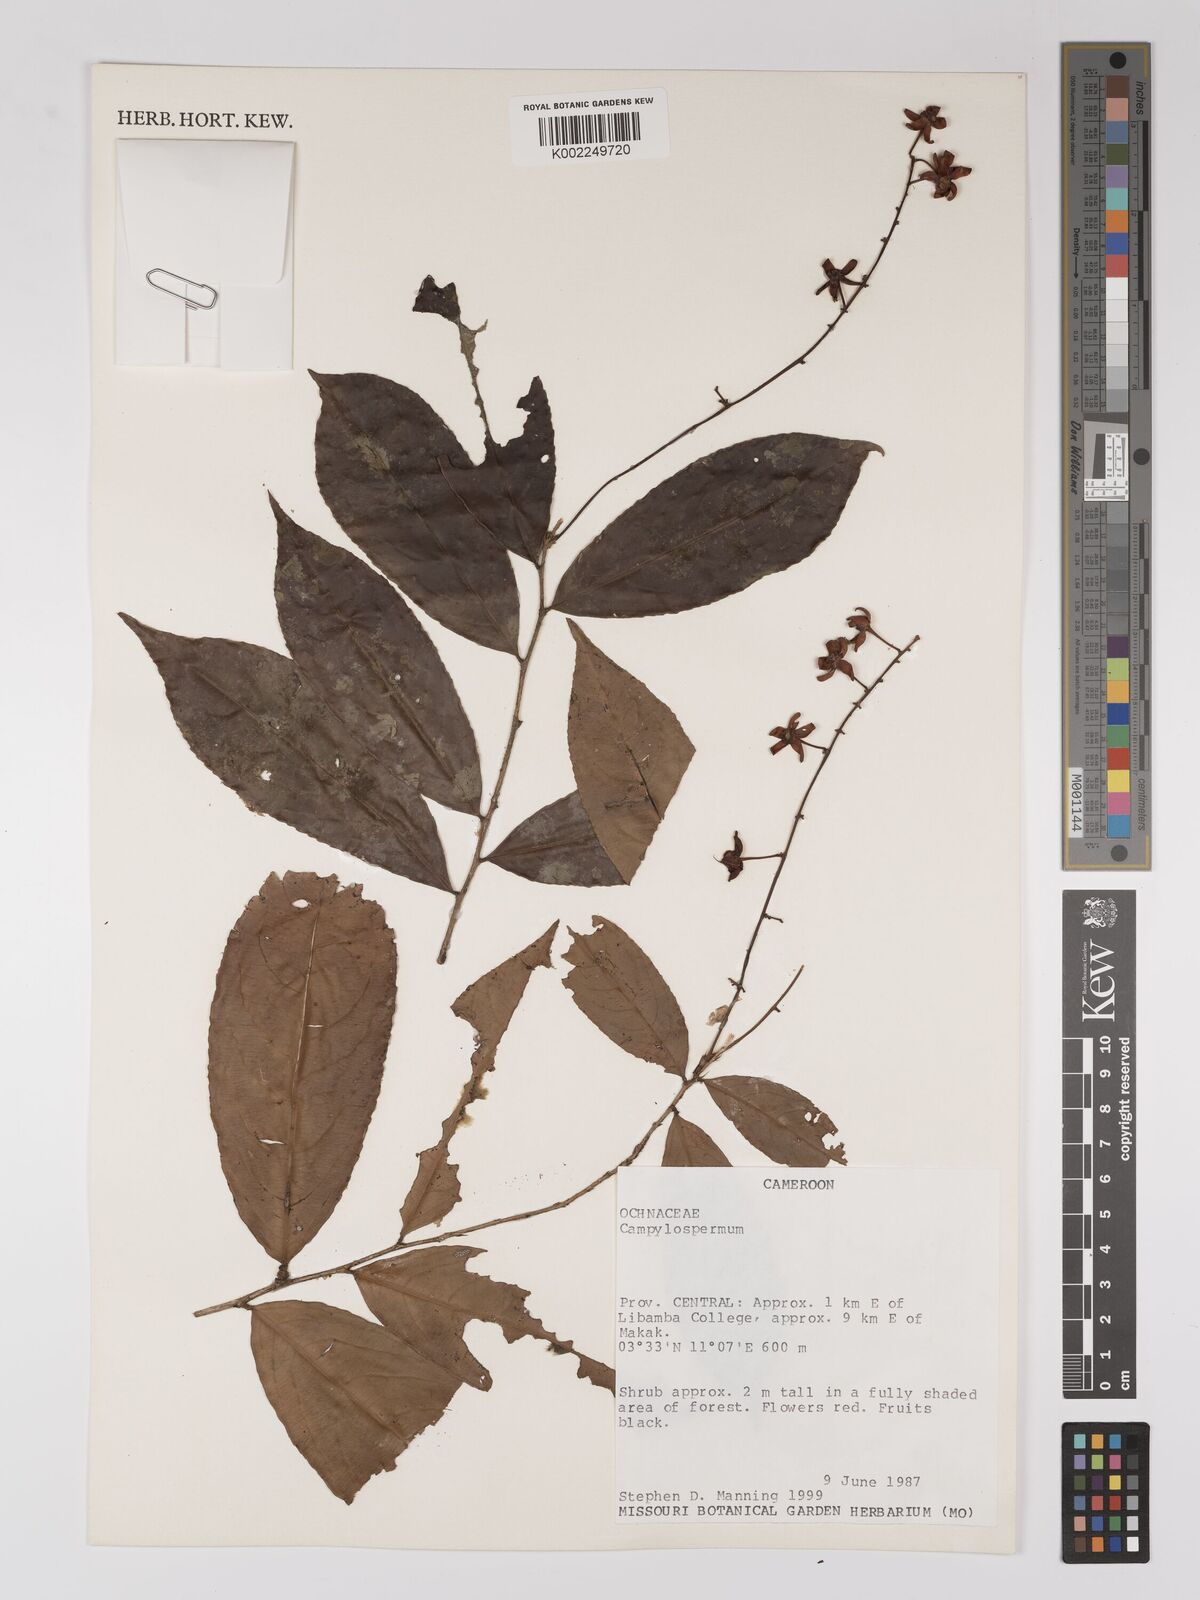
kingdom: Plantae
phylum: Tracheophyta
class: Magnoliopsida
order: Malpighiales
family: Ochnaceae
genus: Campylospermum
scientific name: Campylospermum
